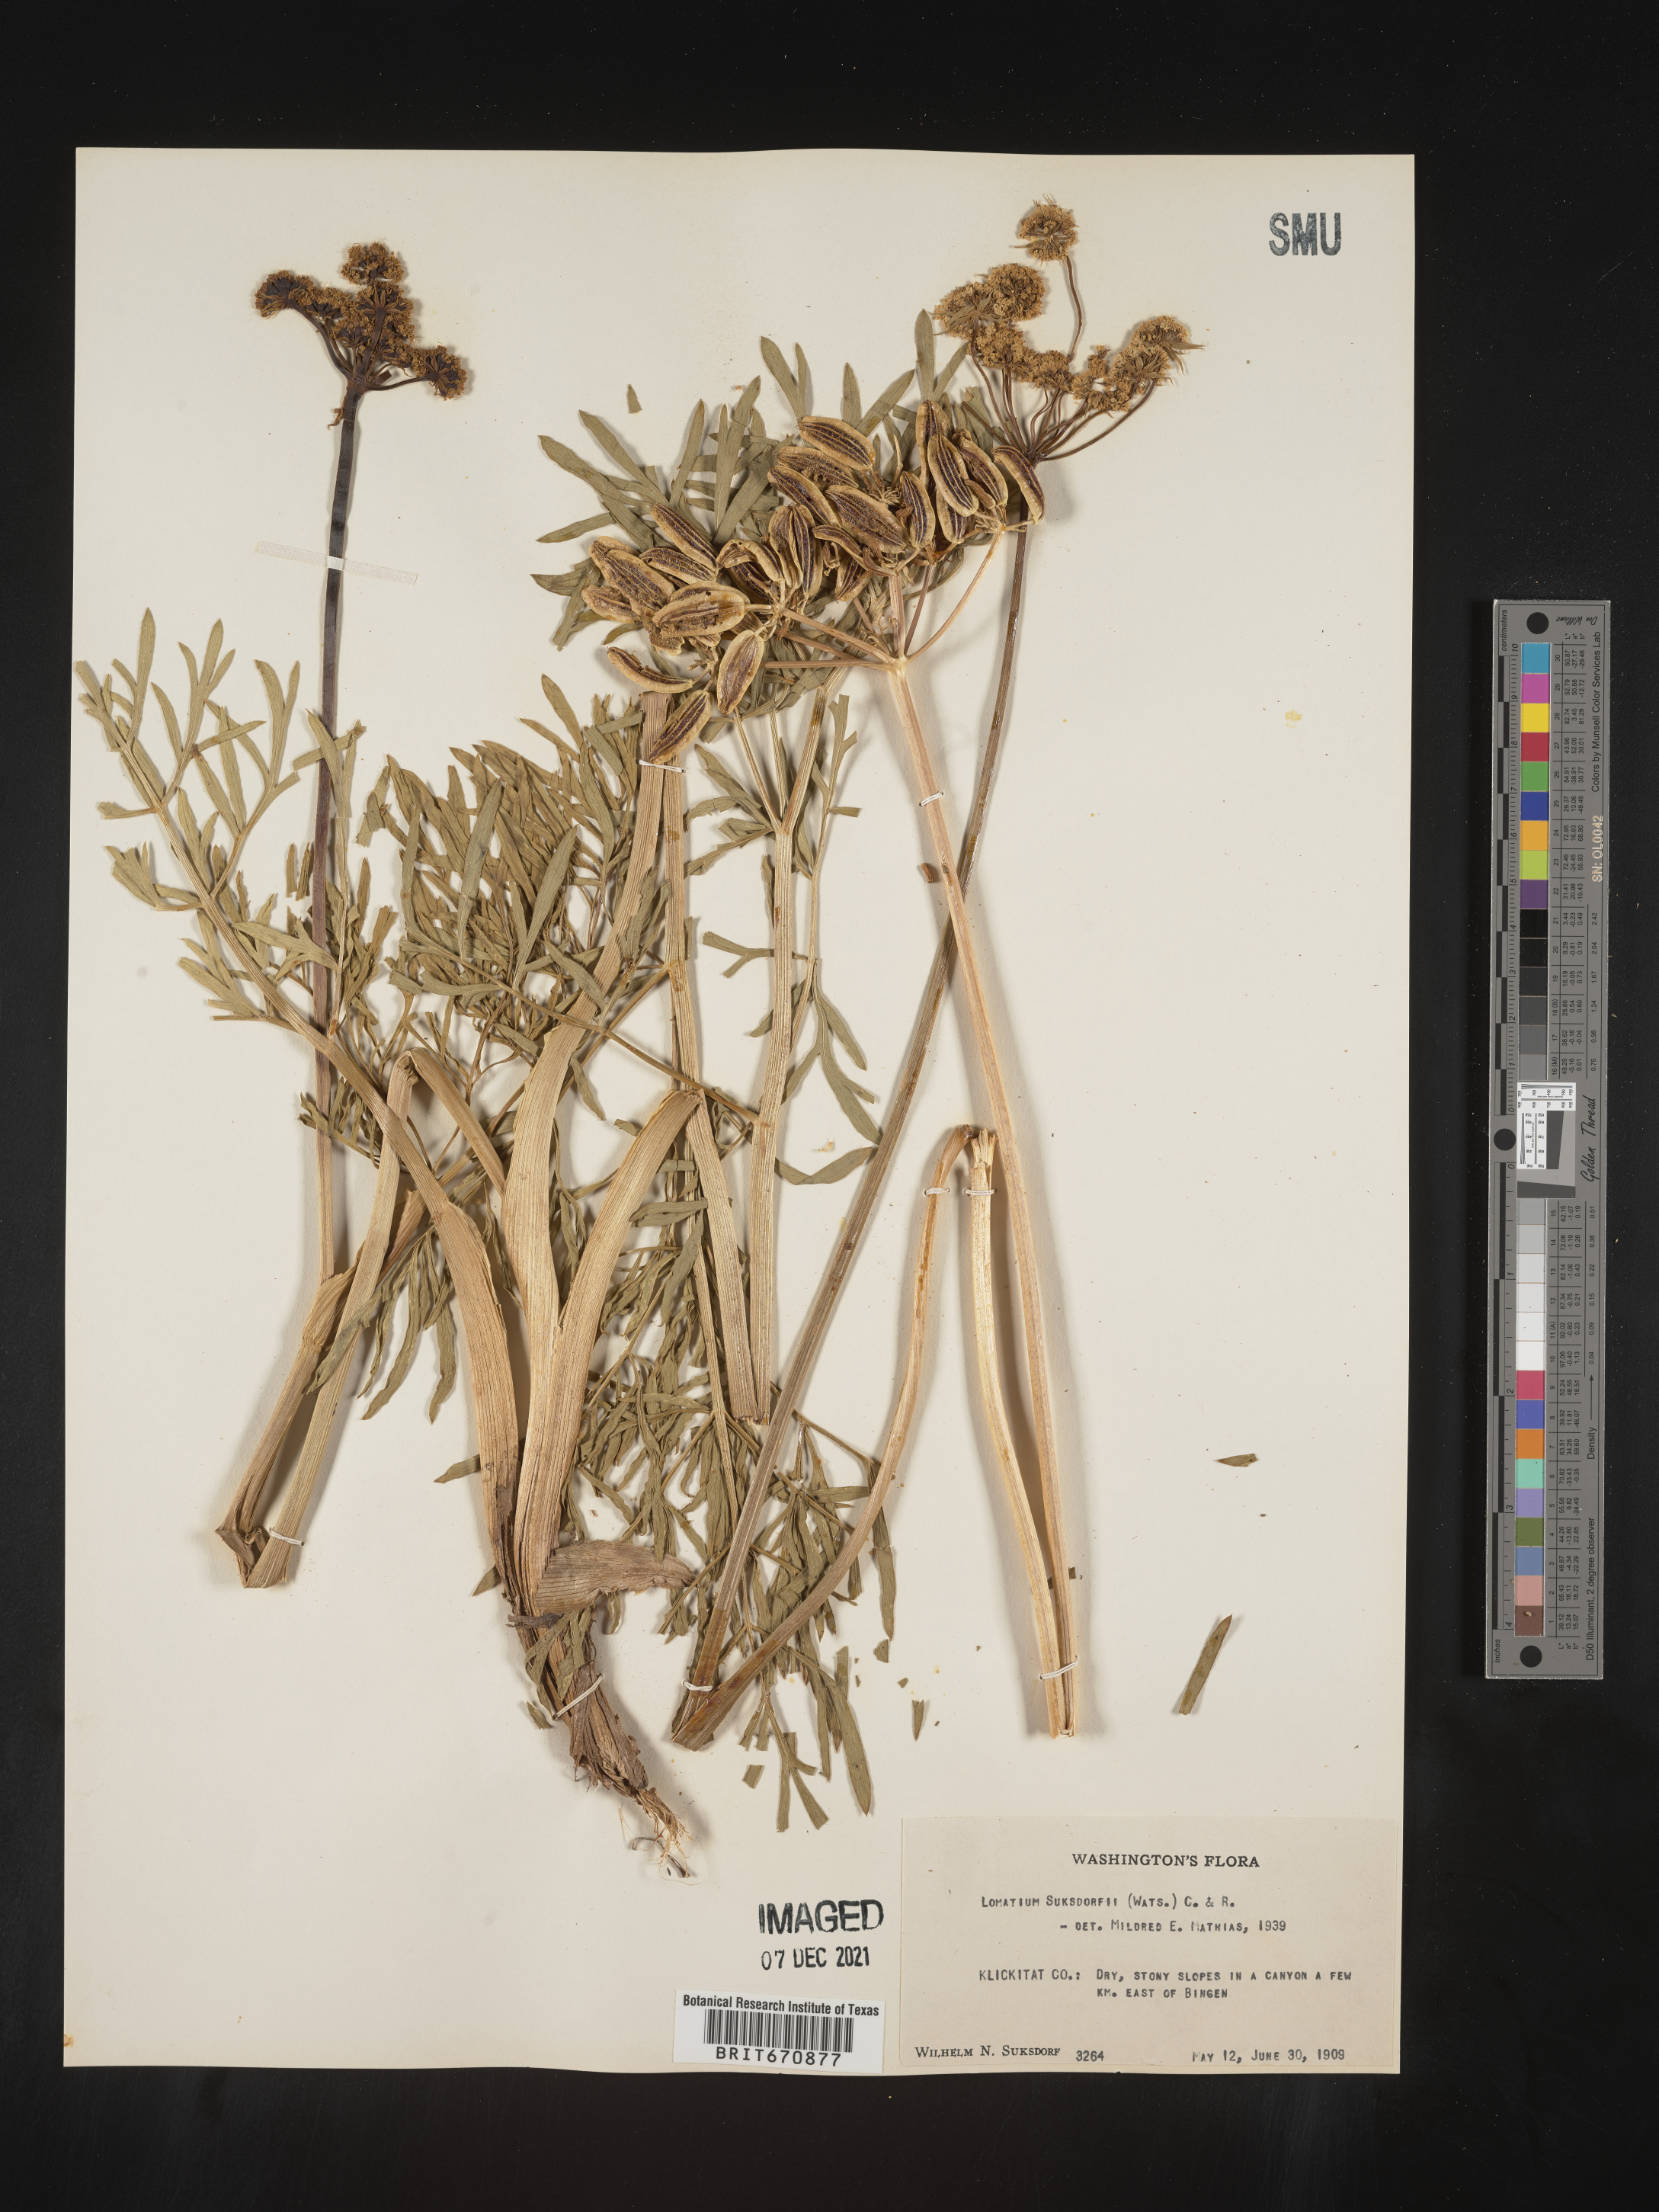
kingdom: Plantae
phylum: Tracheophyta
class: Magnoliopsida
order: Apiales
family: Apiaceae
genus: Lomatium
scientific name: Lomatium
